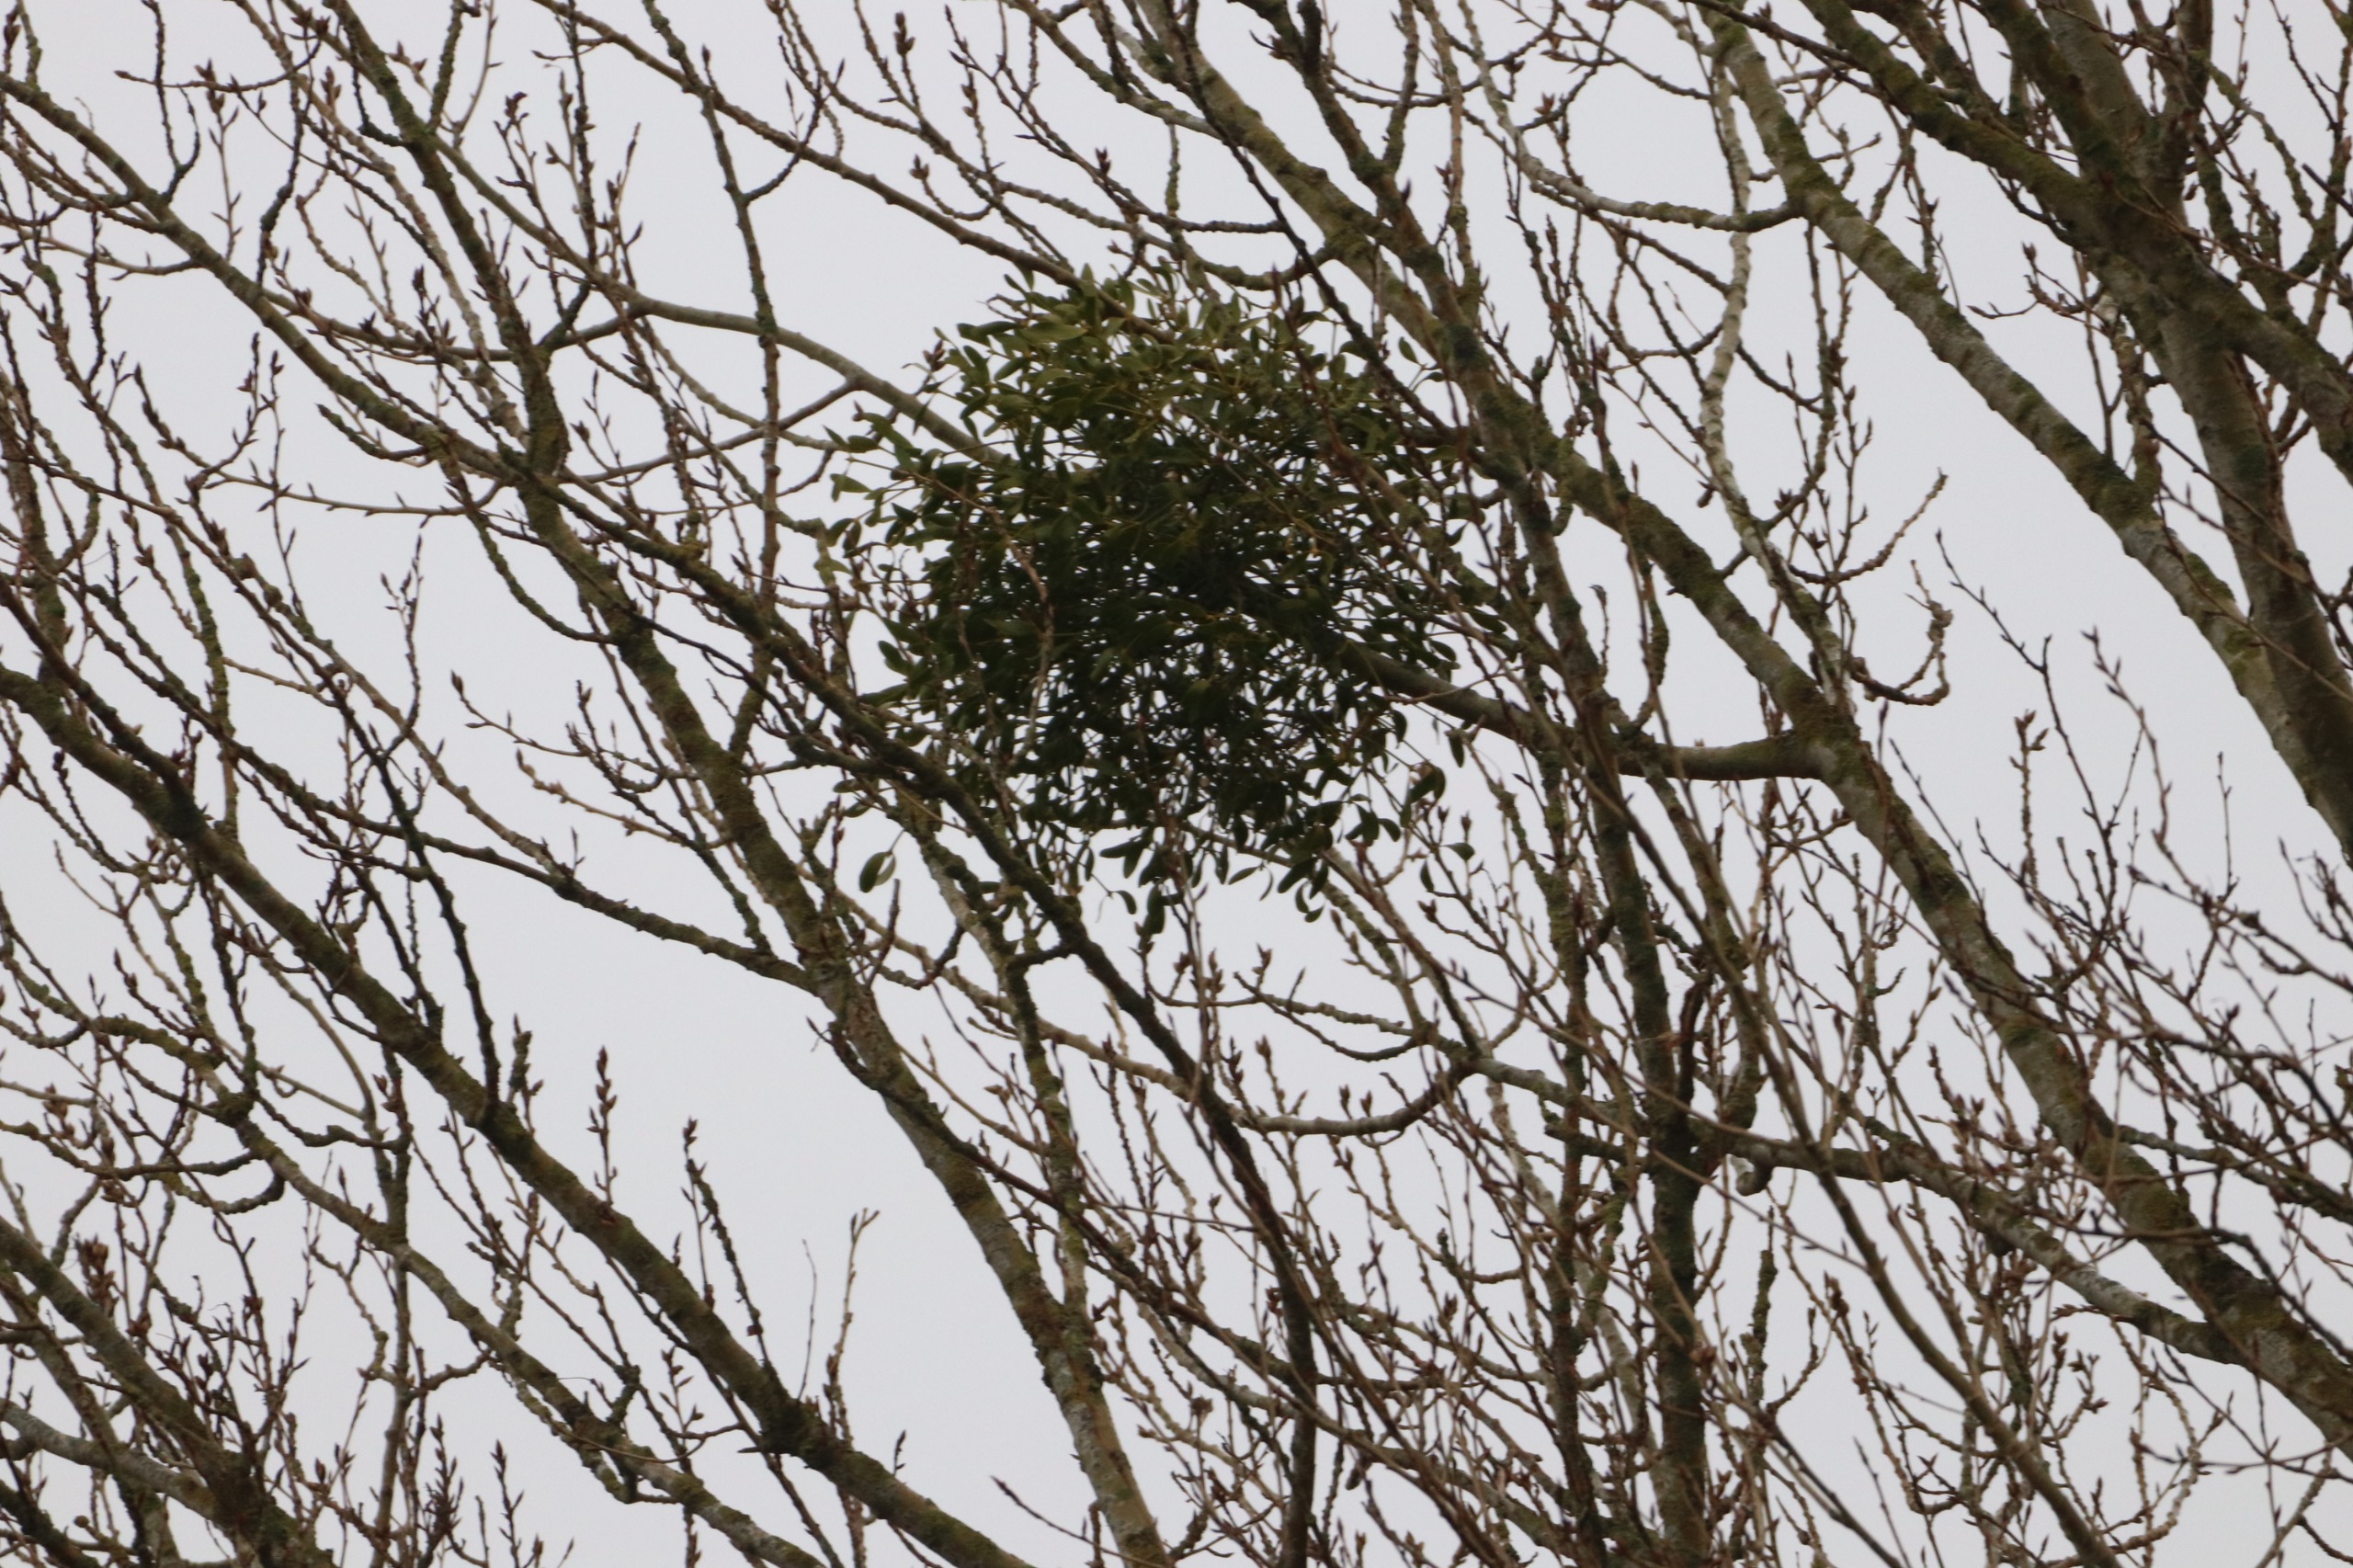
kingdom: Plantae
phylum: Tracheophyta
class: Magnoliopsida
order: Santalales
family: Viscaceae
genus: Viscum
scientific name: Viscum album
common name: Mistelten
